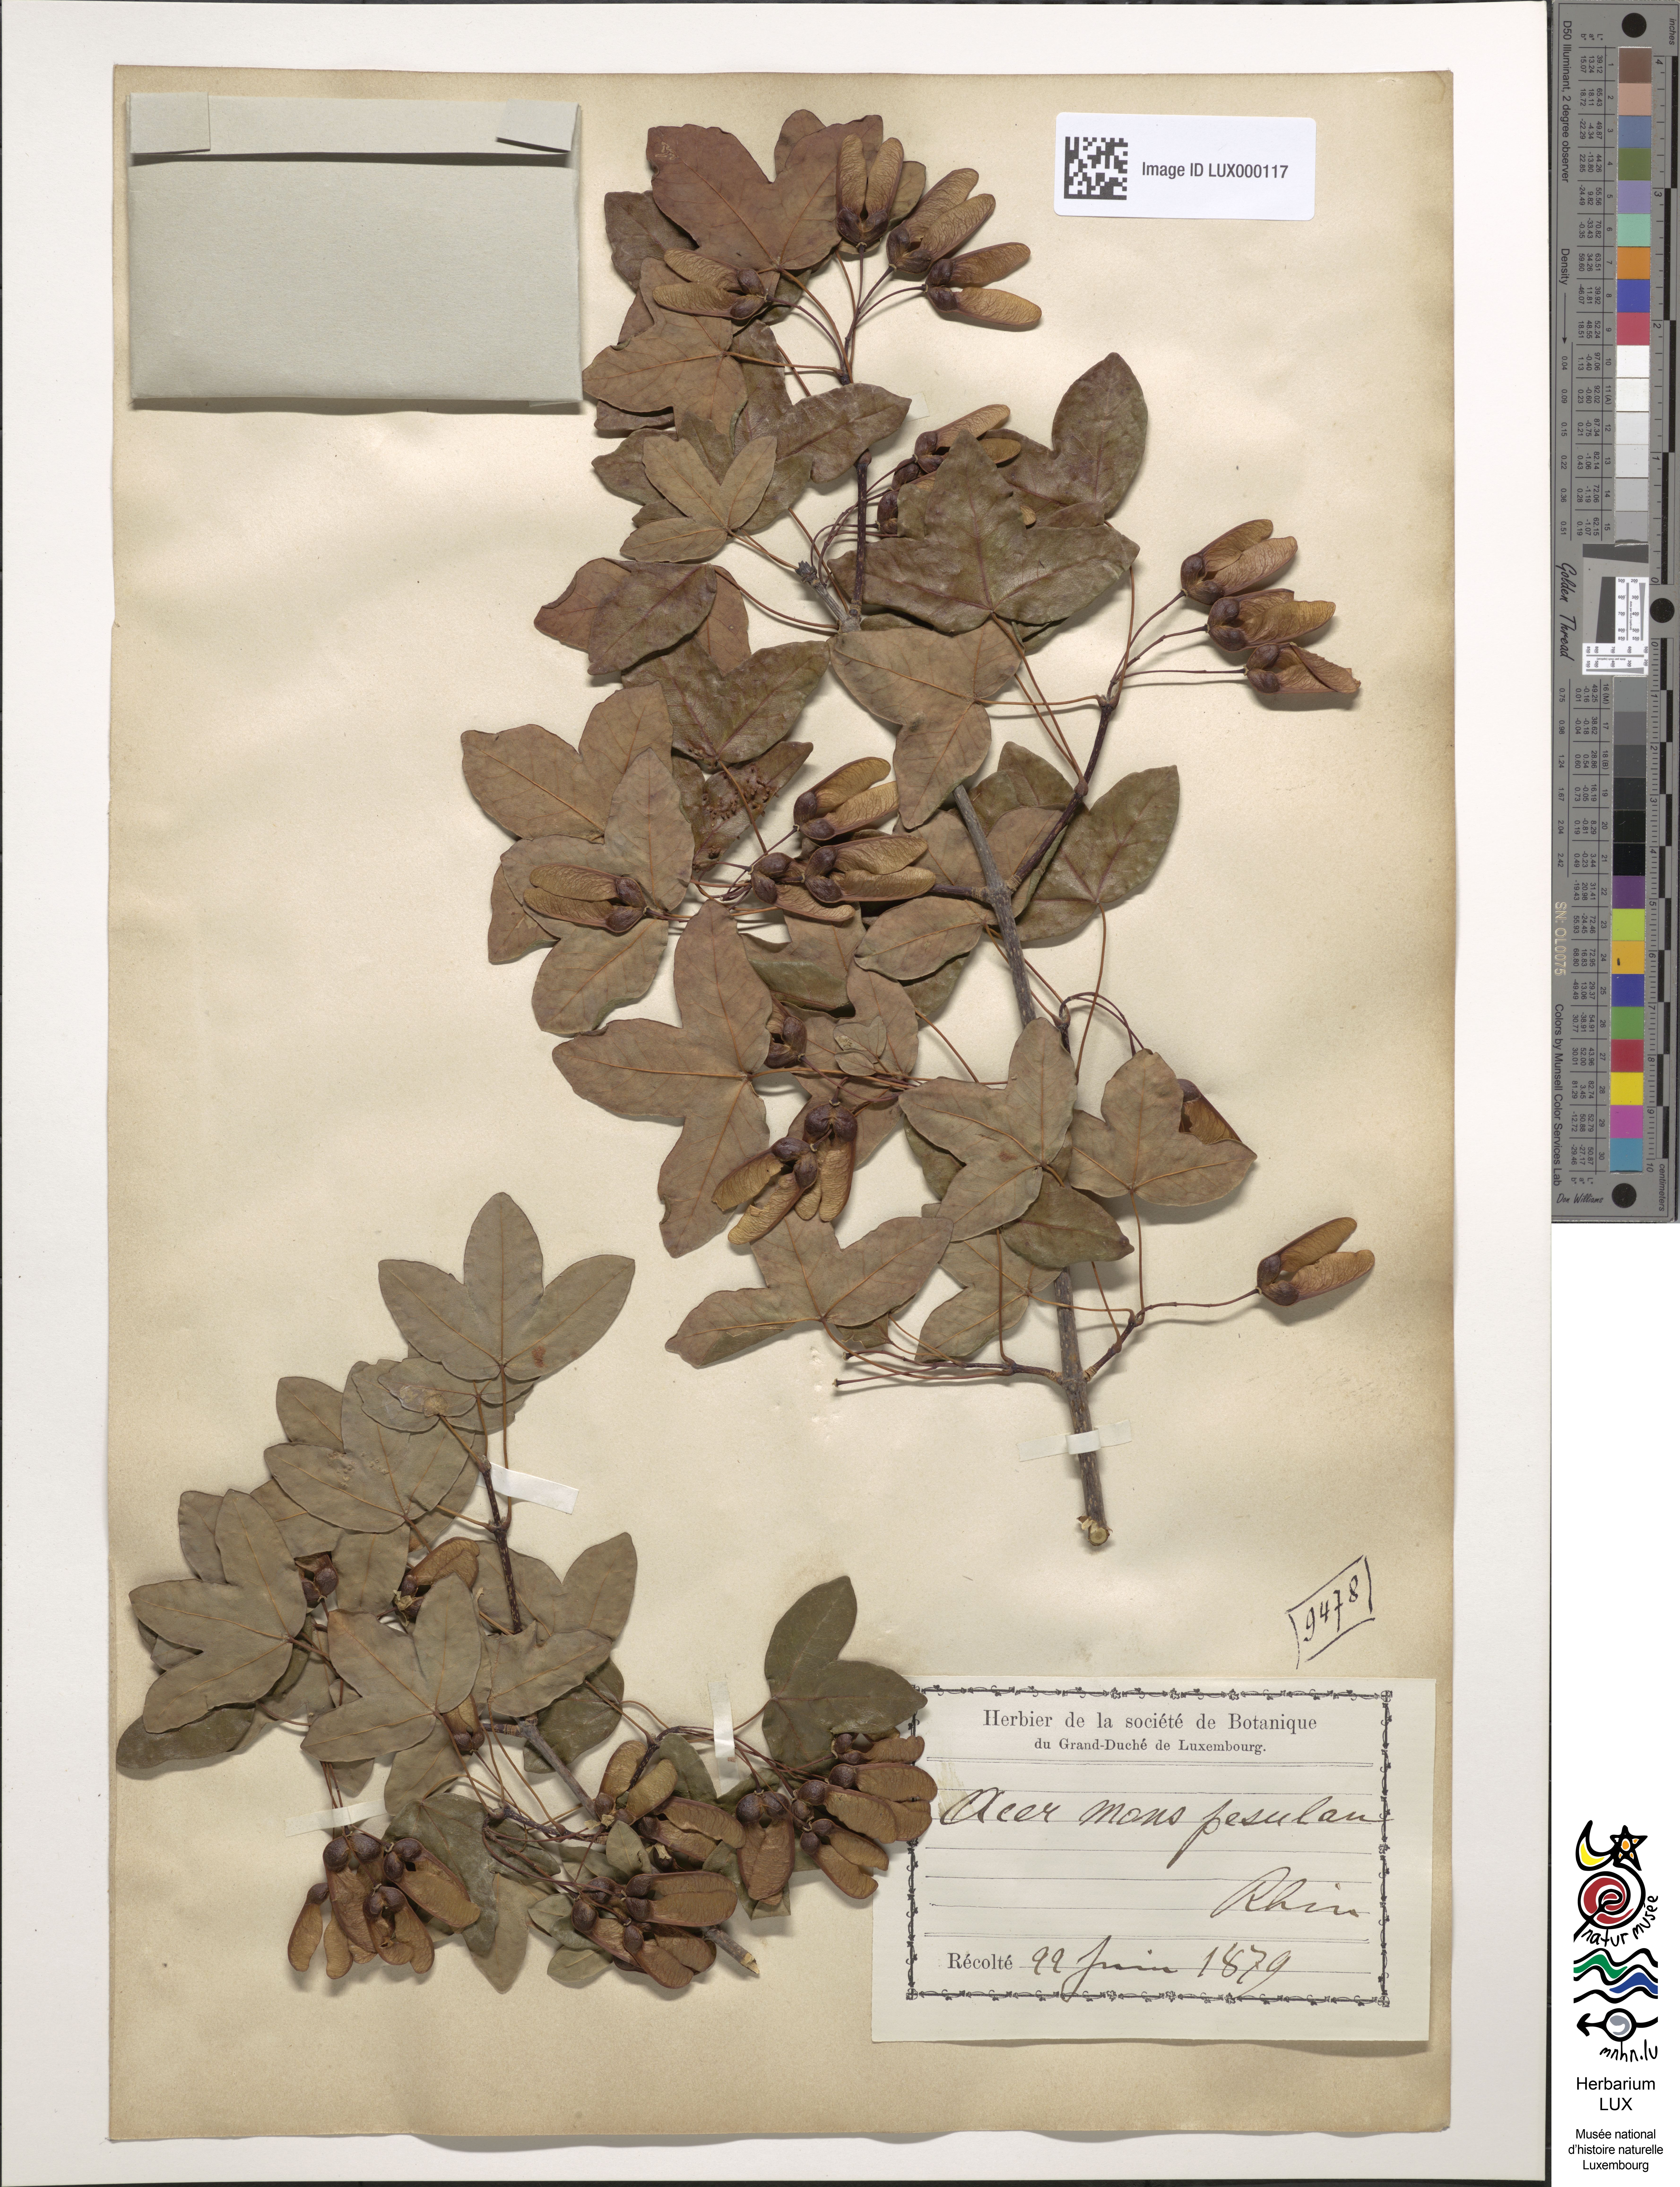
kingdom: Plantae
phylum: Tracheophyta
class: Magnoliopsida
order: Sapindales
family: Sapindaceae
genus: Acer
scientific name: Acer monspessulanum
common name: Montpellier maple
